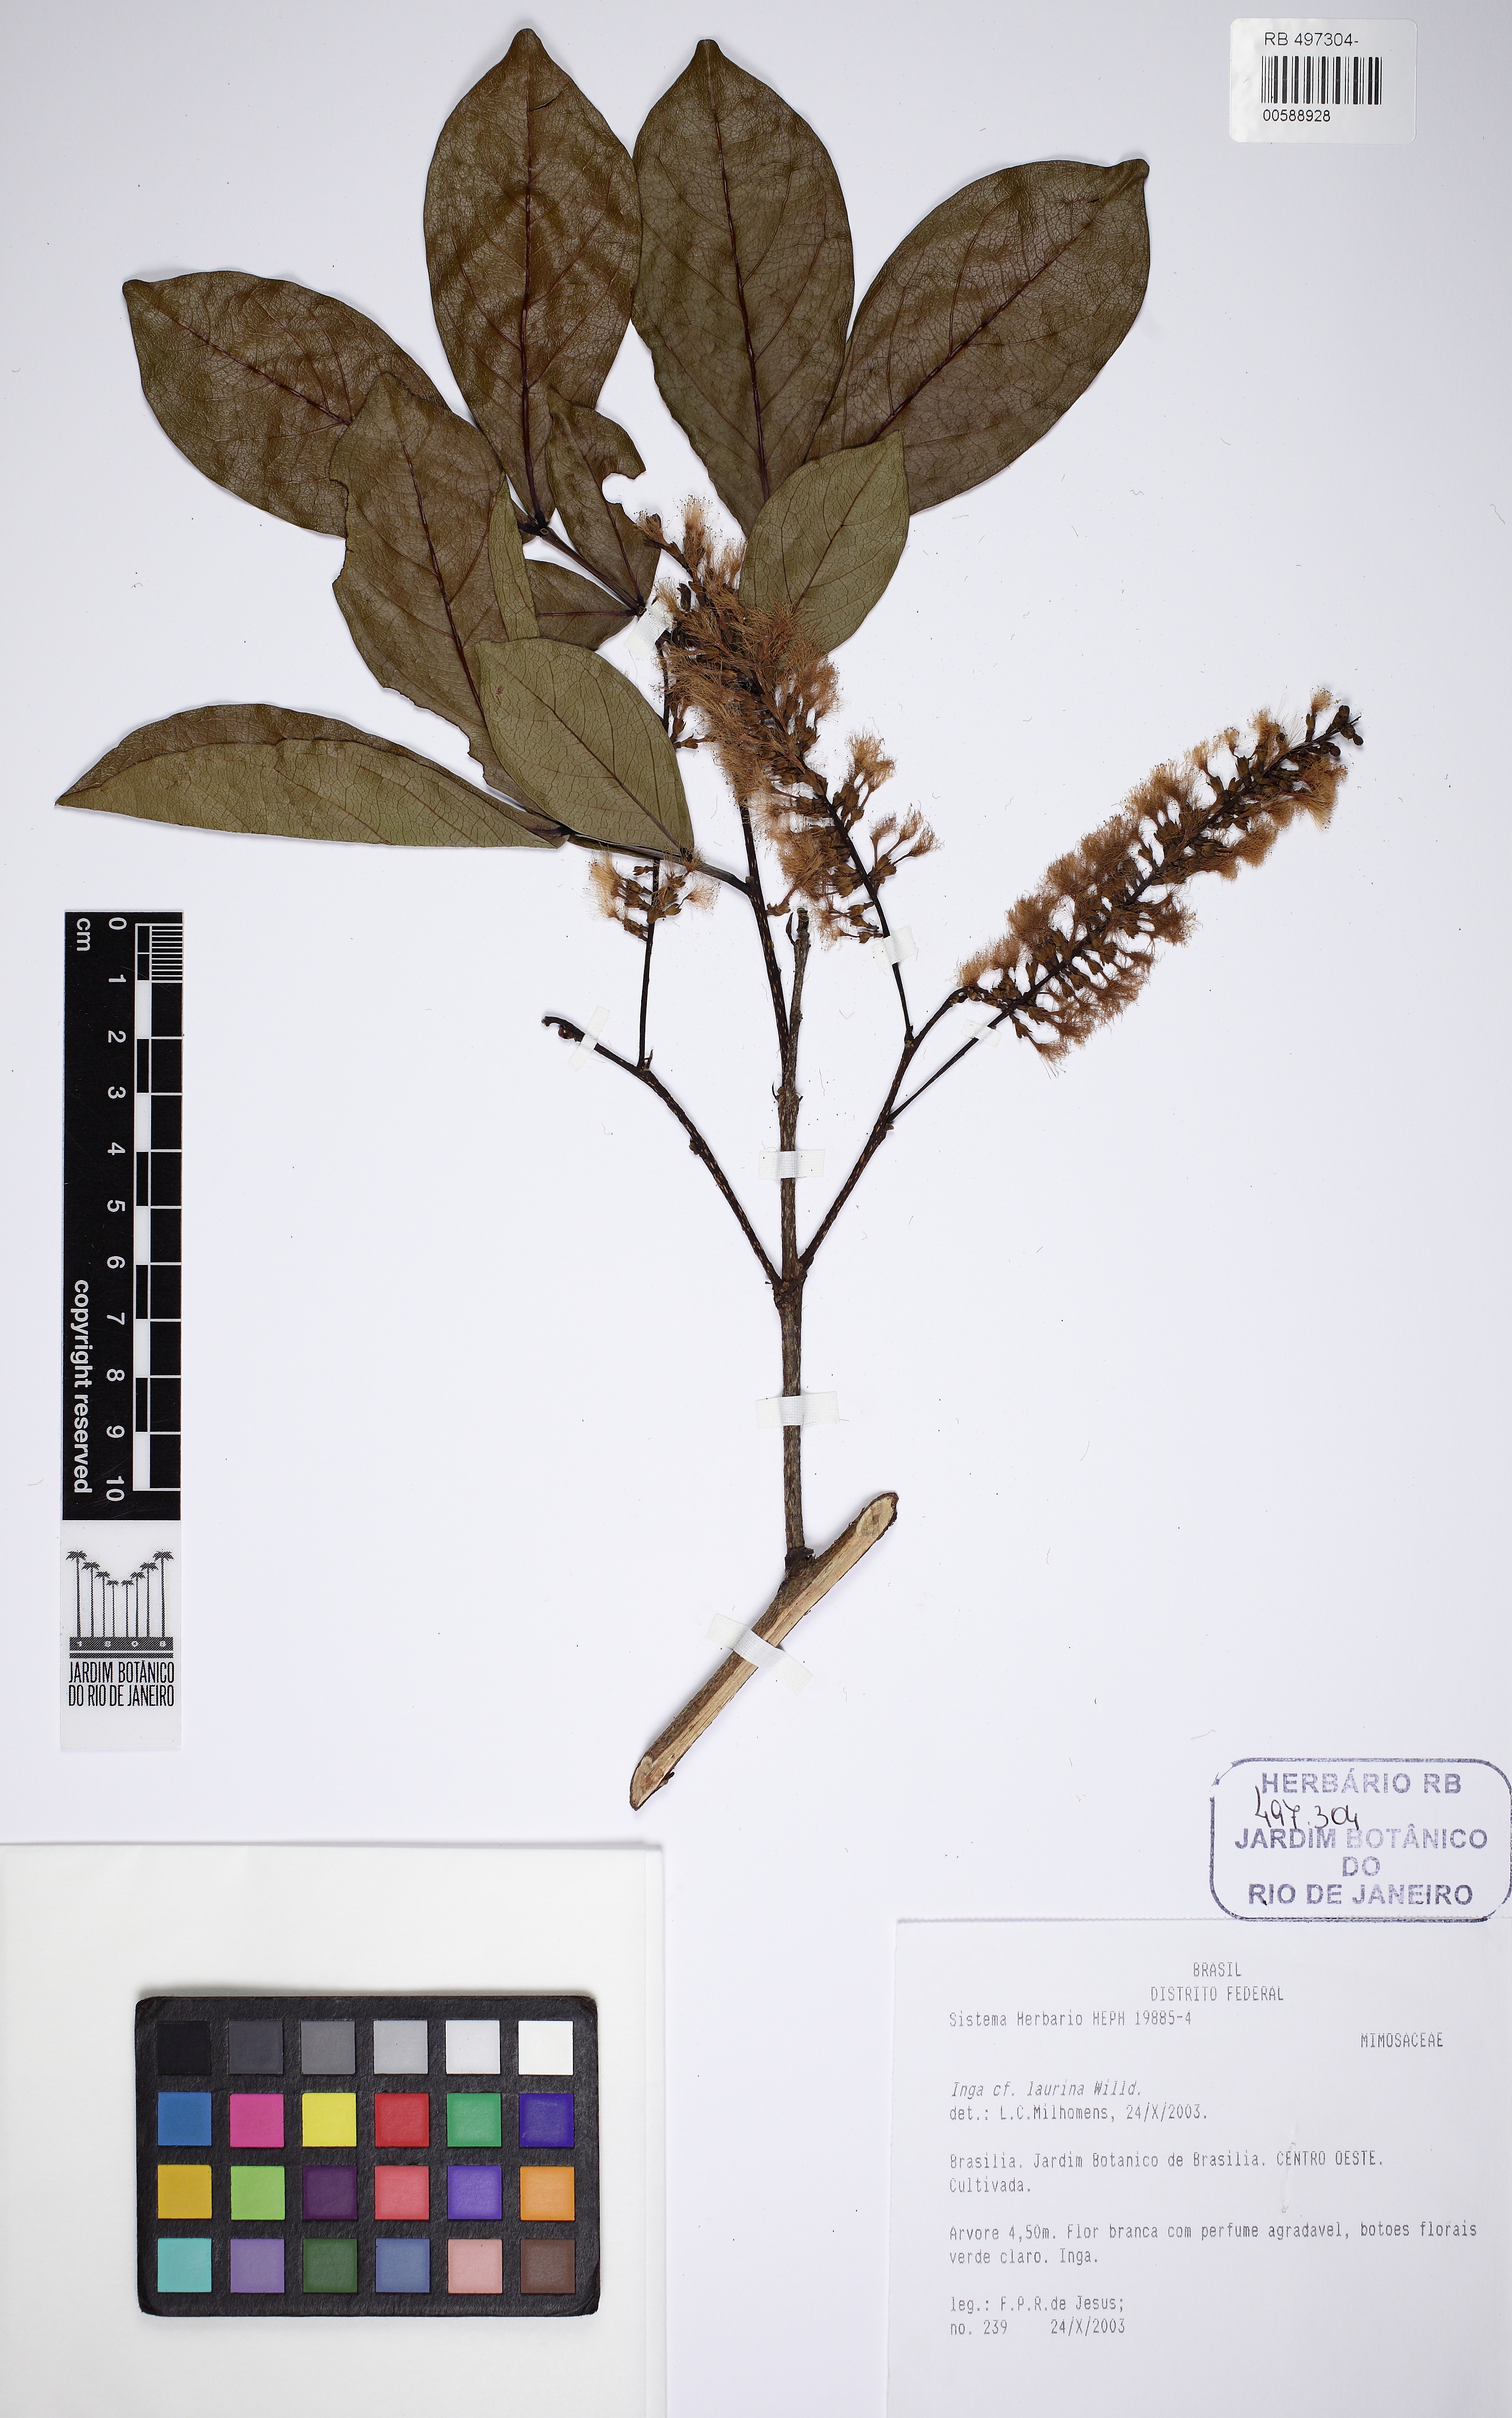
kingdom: Plantae
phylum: Tracheophyta
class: Magnoliopsida
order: Fabales
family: Fabaceae
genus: Inga
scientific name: Inga laurina
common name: Red wood
